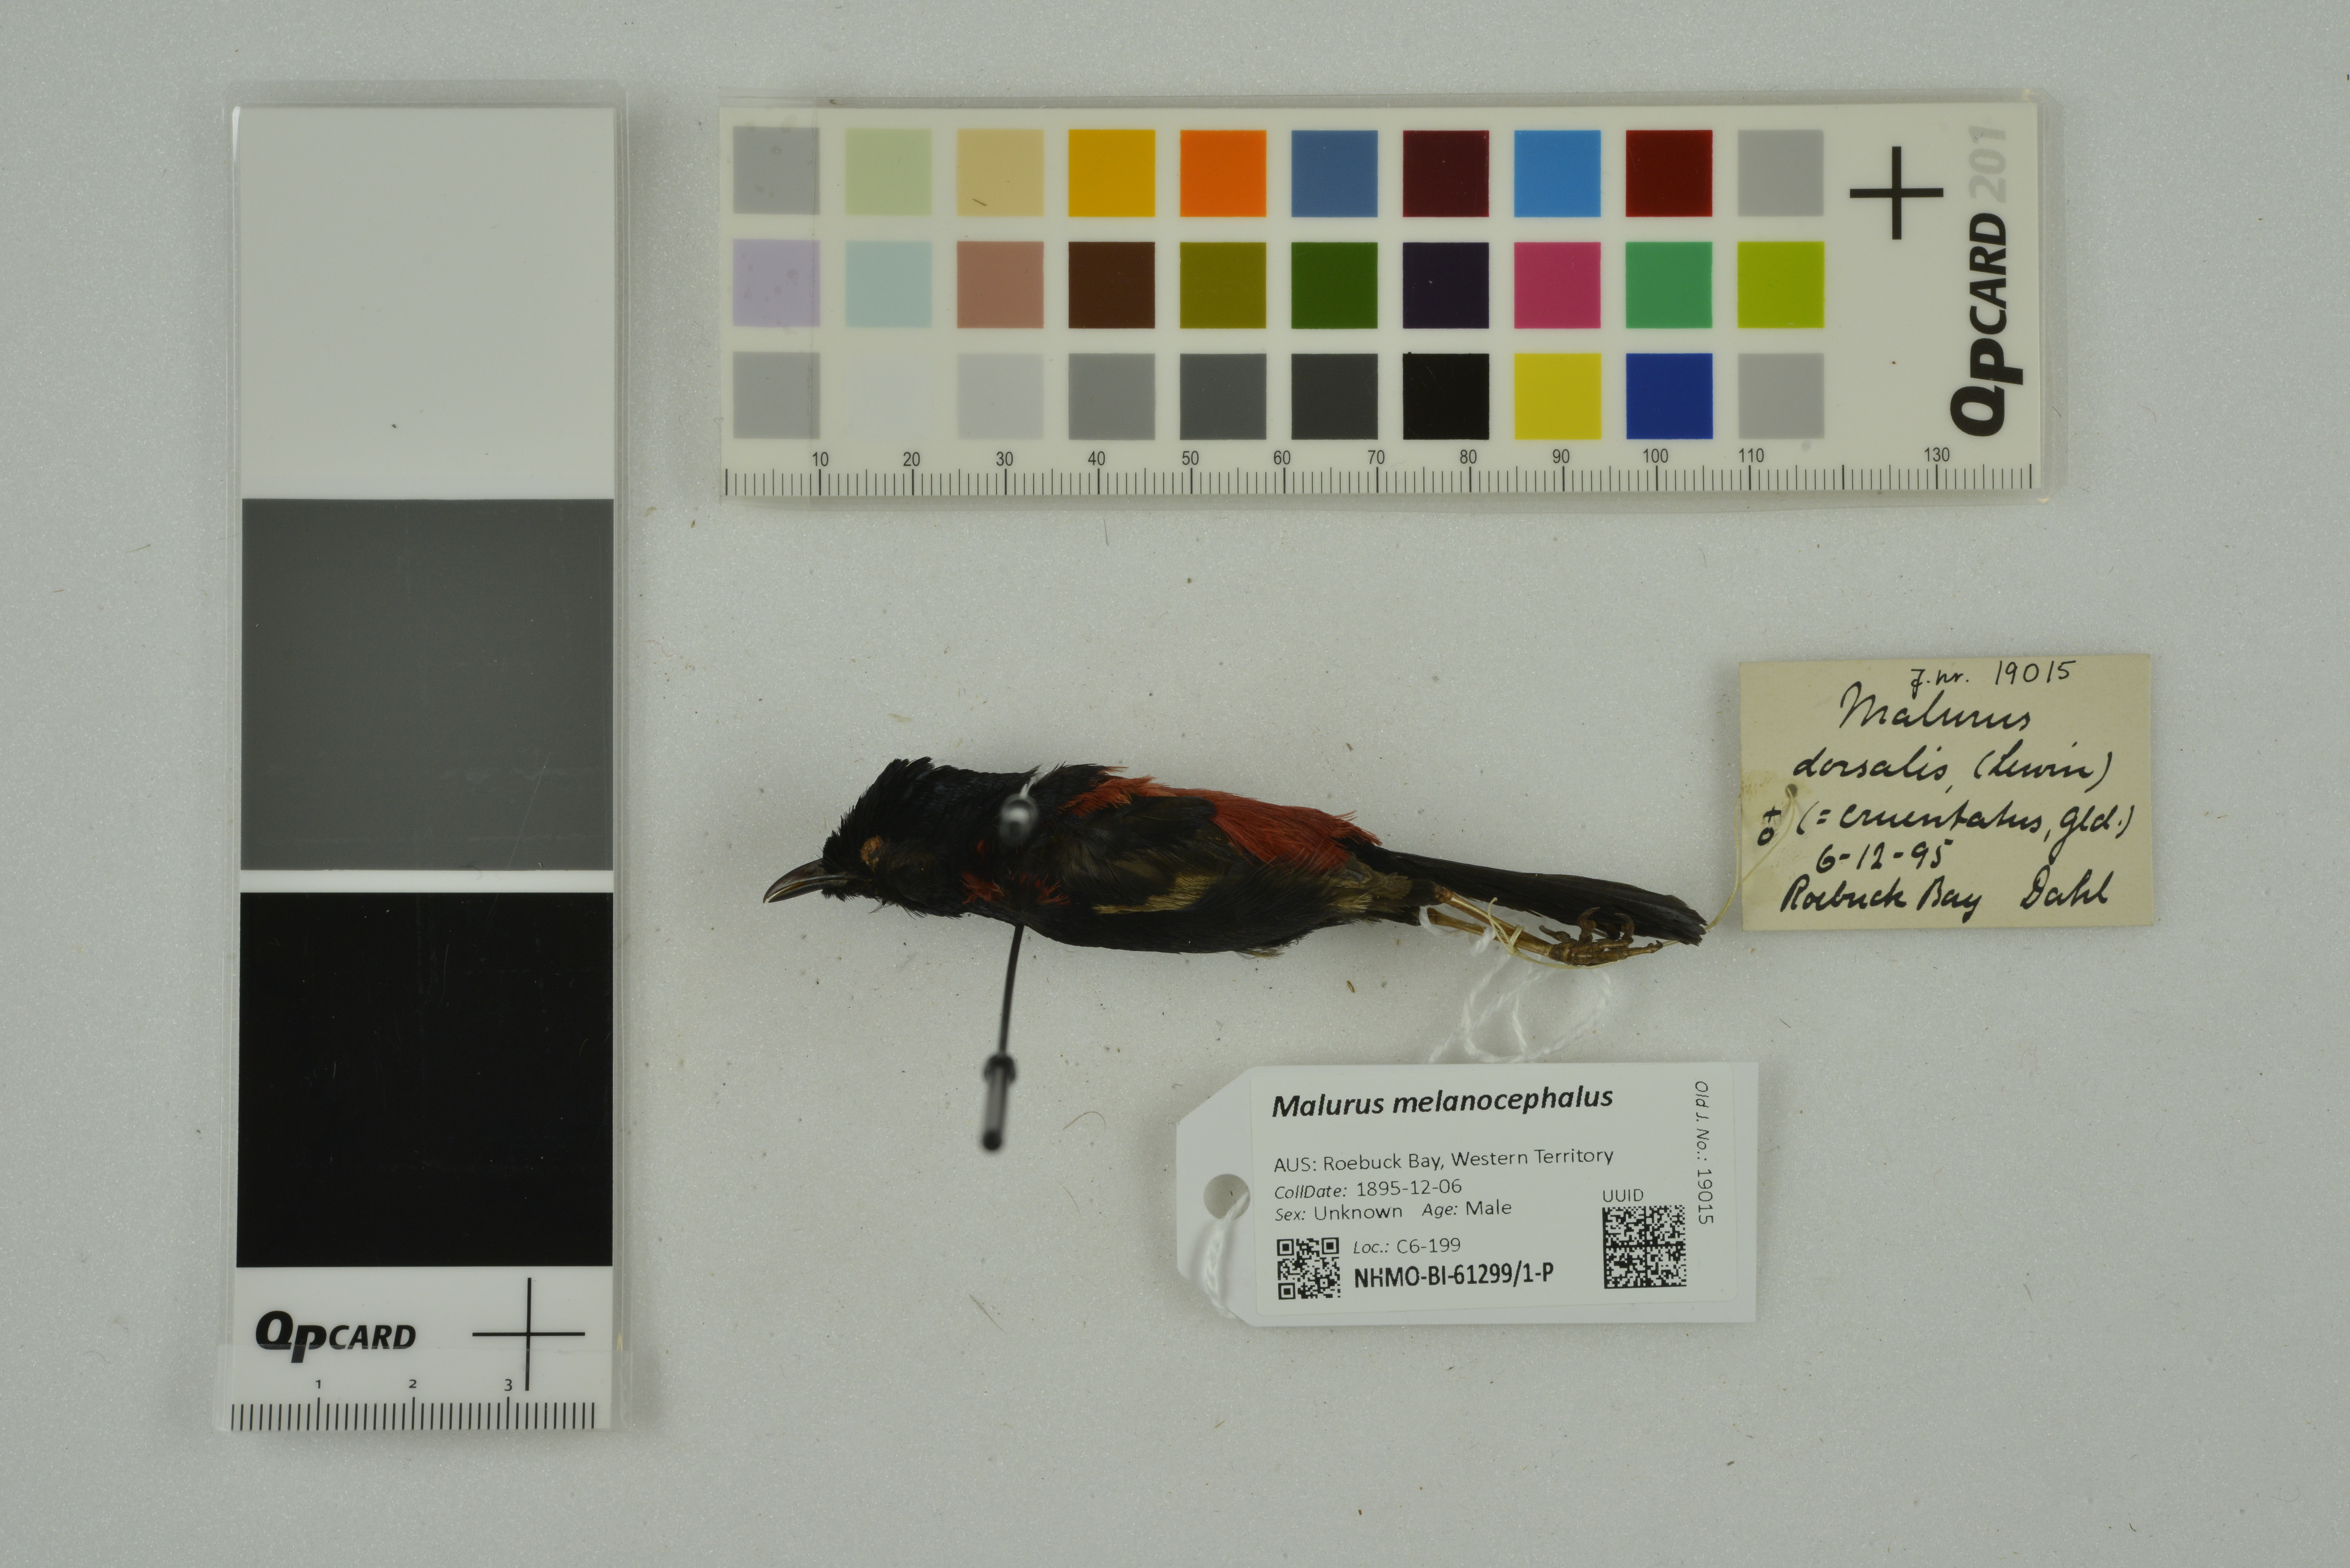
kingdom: Animalia
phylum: Chordata
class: Aves
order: Passeriformes
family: Maluridae
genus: Malurus
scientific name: Malurus melanocephalus
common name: Red-backed fairywren
